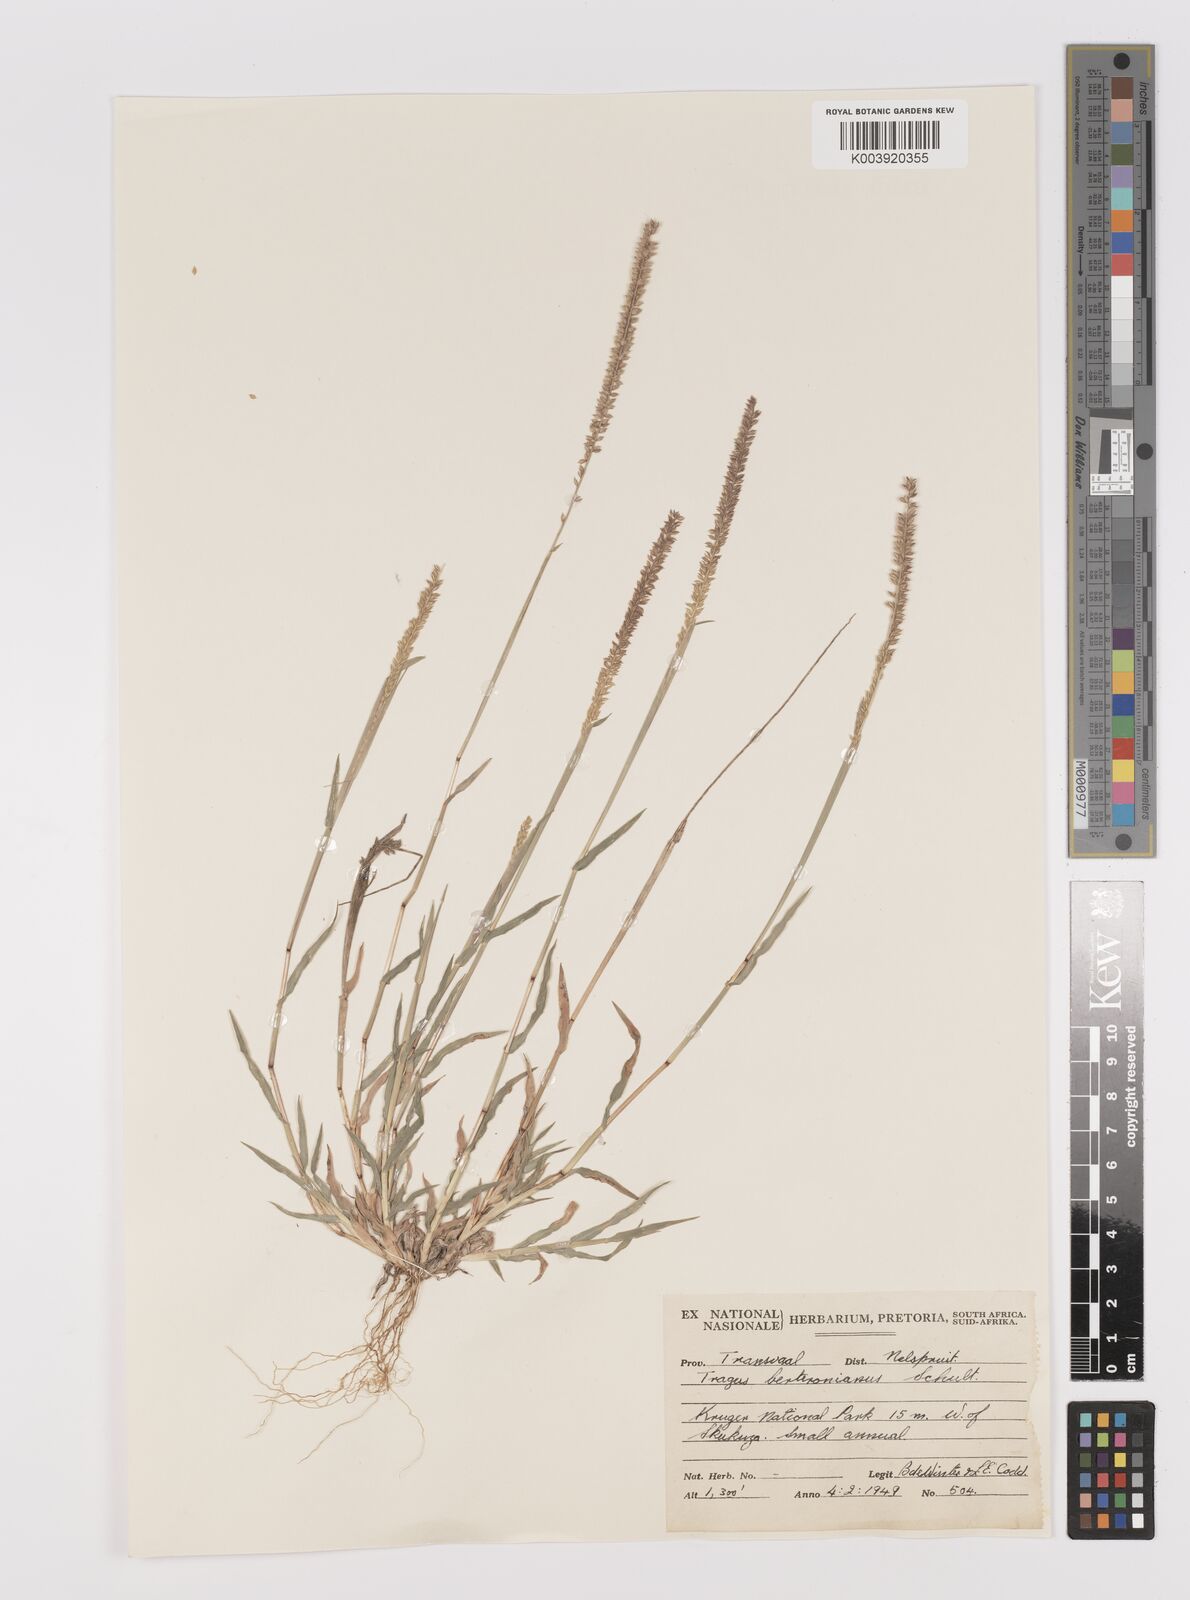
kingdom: Plantae
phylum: Tracheophyta
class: Liliopsida
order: Poales
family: Poaceae
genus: Tragus
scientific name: Tragus berteronianus
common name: African bur-grass
